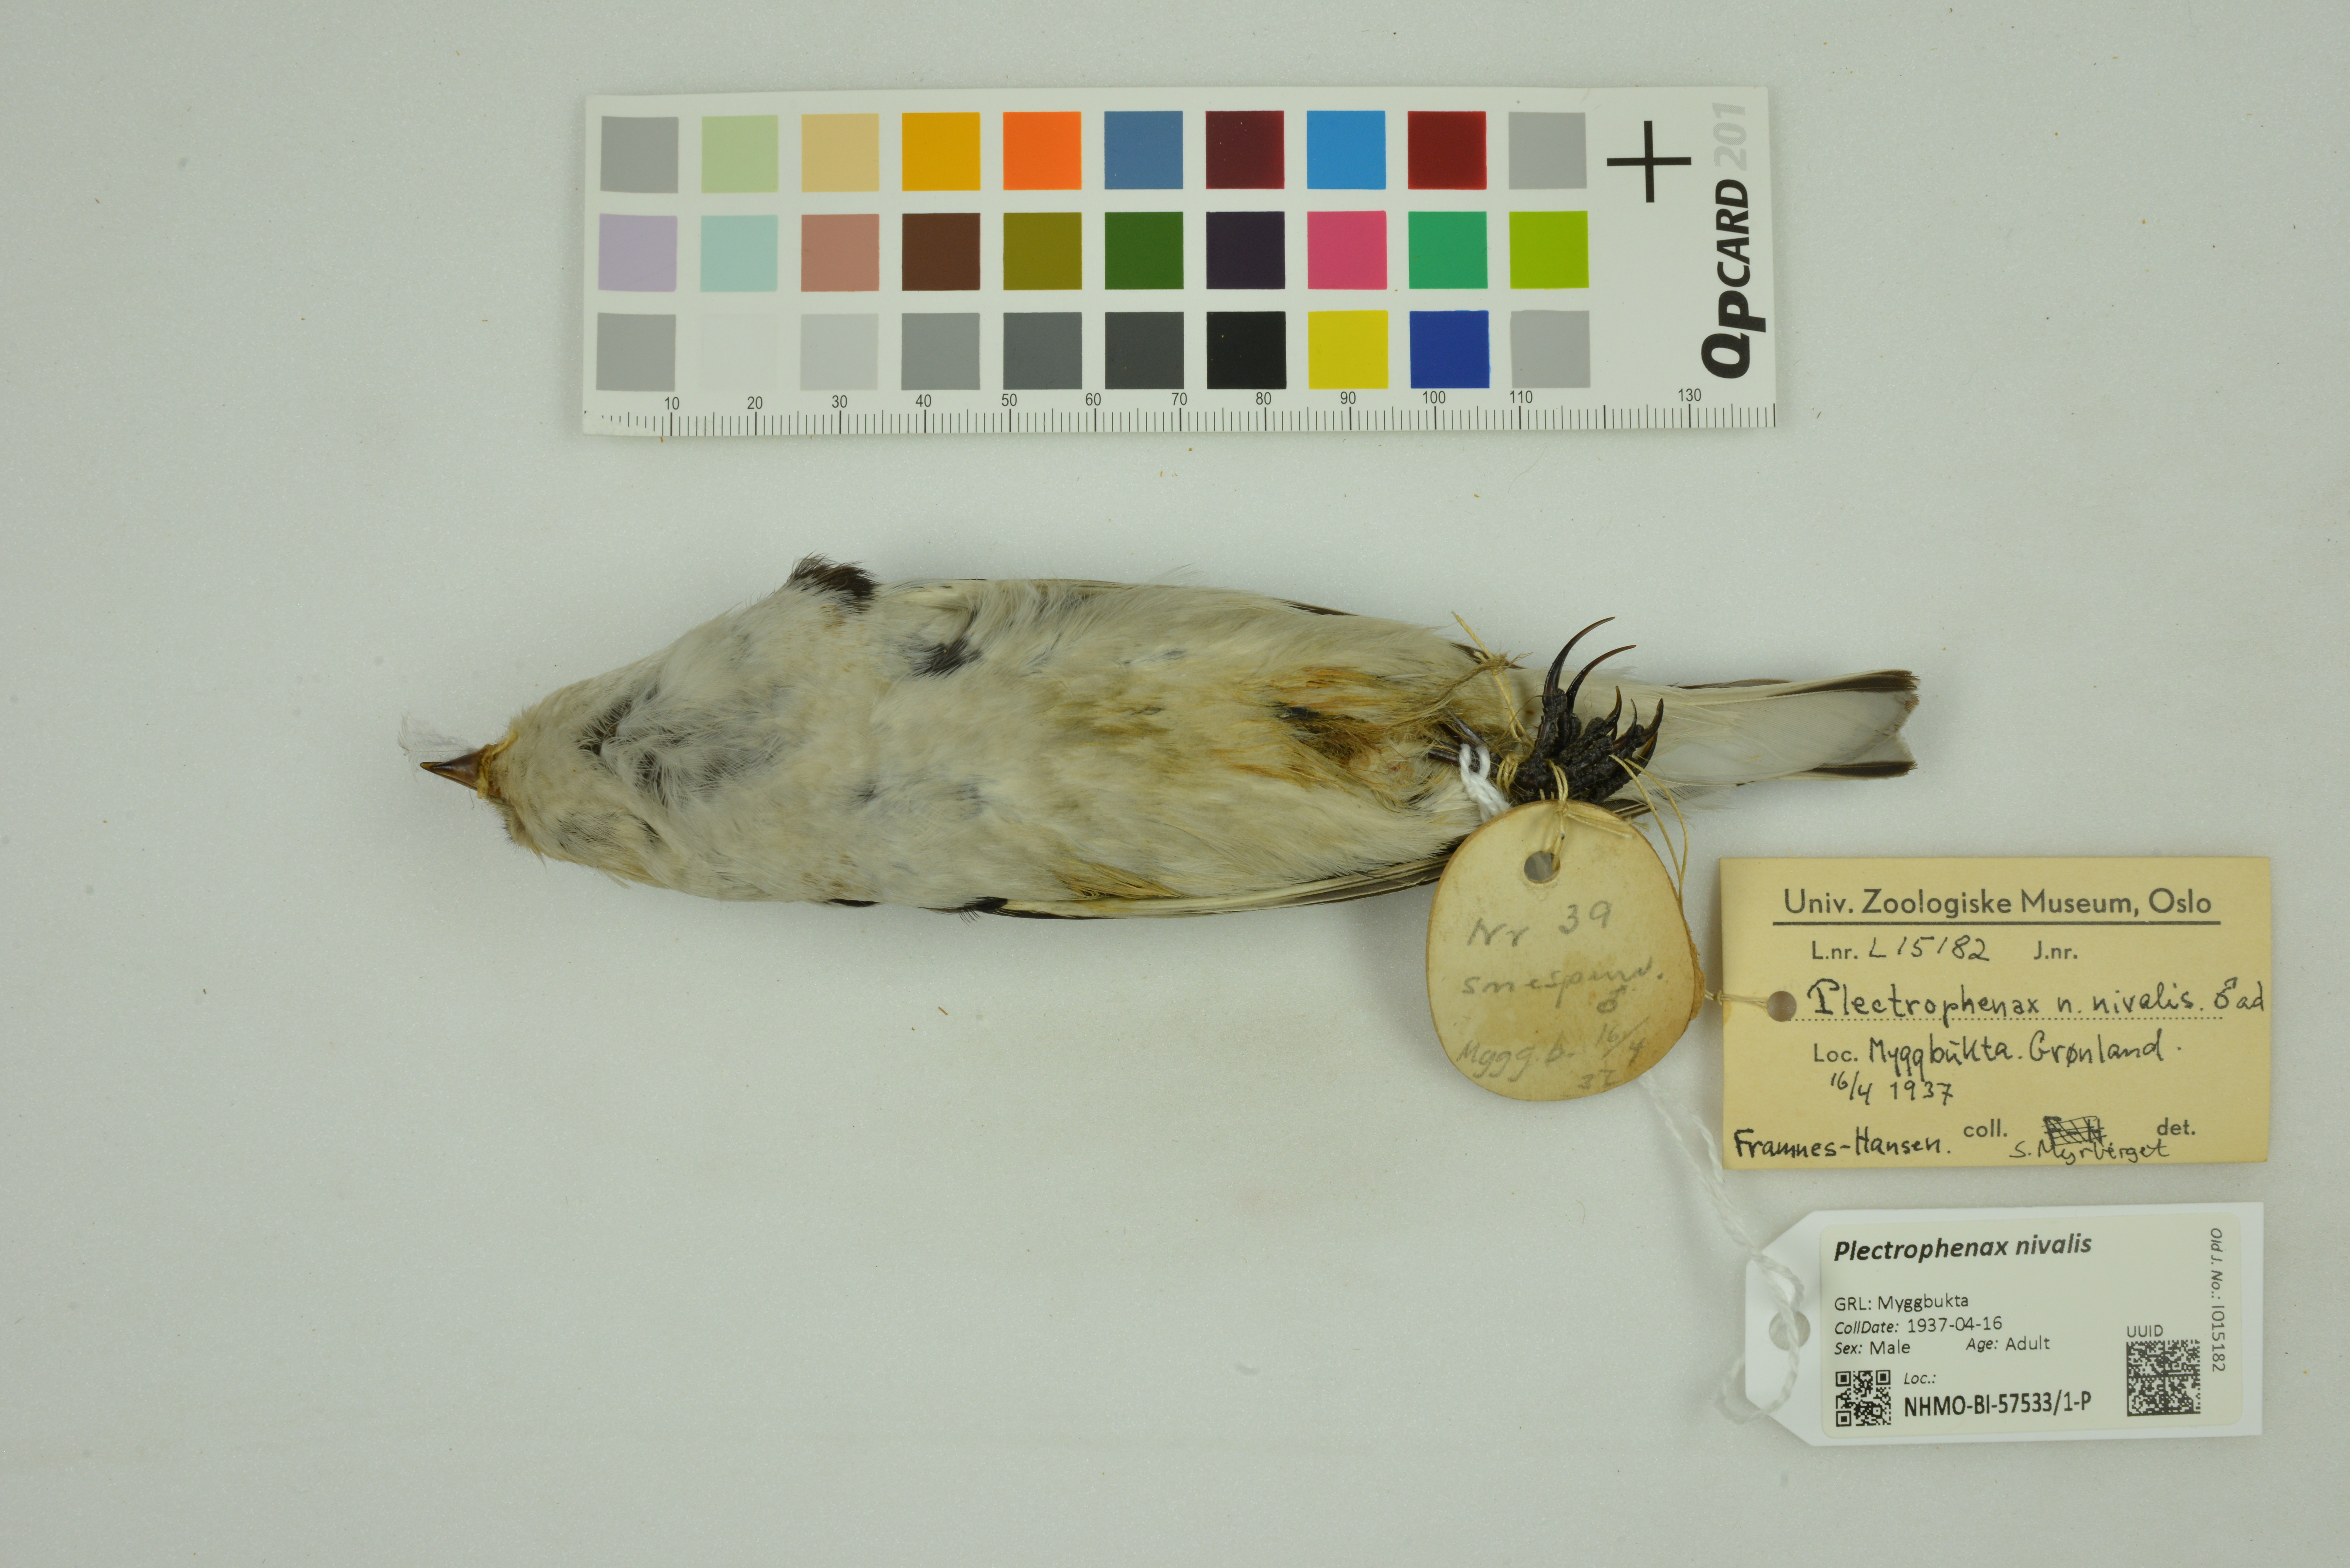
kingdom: Animalia
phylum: Chordata
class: Aves
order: Passeriformes
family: Calcariidae
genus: Plectrophenax
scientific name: Plectrophenax nivalis
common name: Snow bunting
